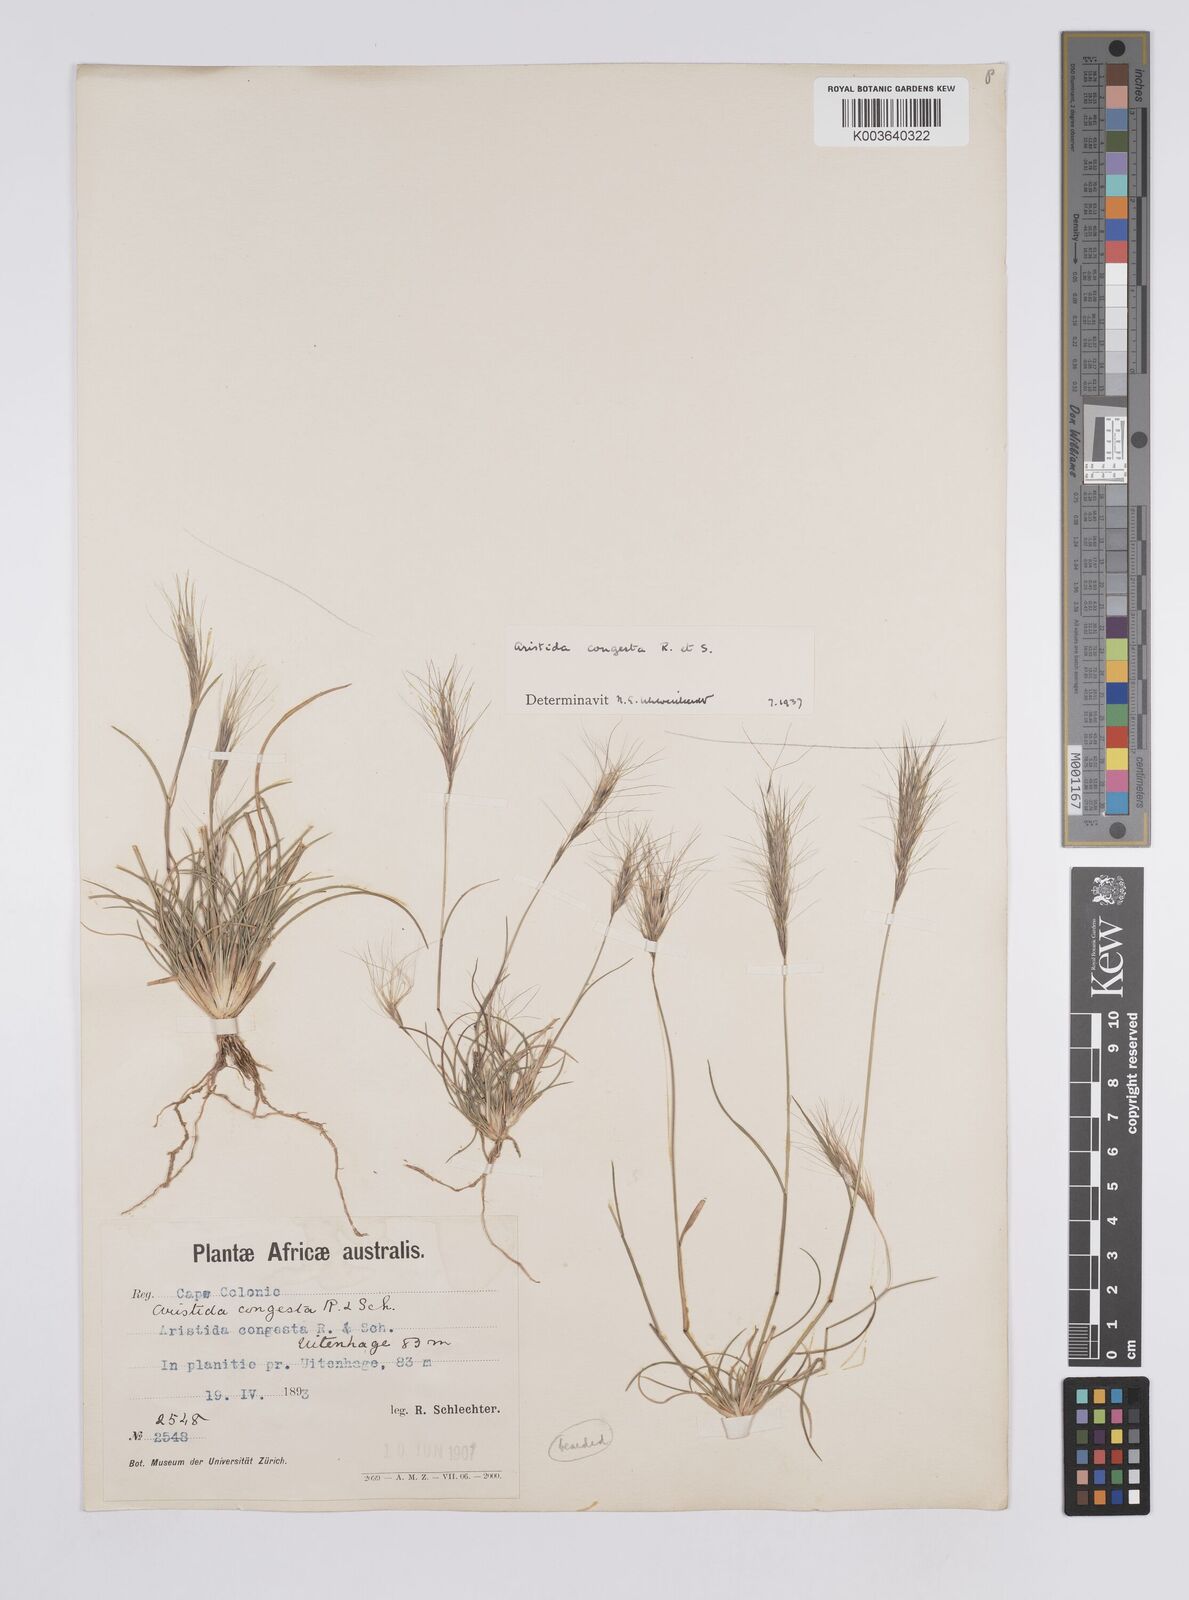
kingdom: Plantae
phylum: Tracheophyta
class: Liliopsida
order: Poales
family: Poaceae
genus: Aristida
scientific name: Aristida congesta
